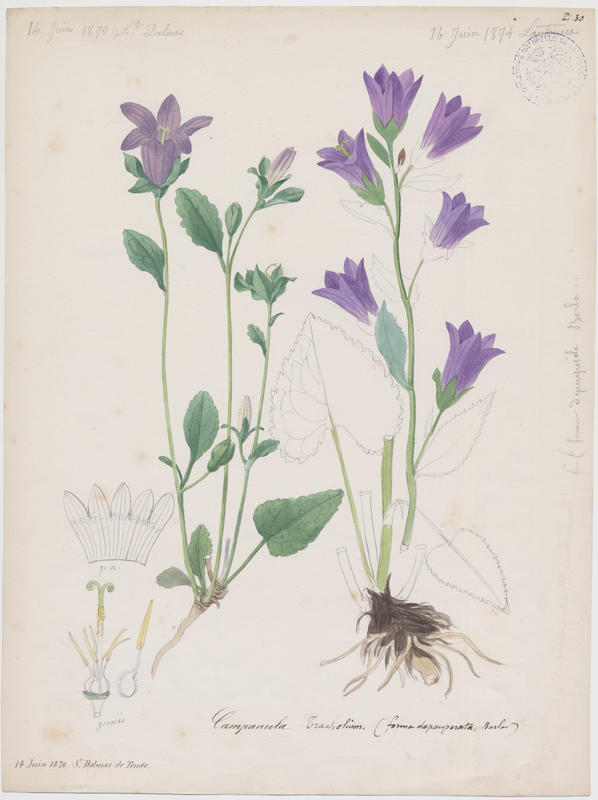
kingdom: Plantae
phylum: Tracheophyta
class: Magnoliopsida
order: Asterales
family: Campanulaceae
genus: Campanula
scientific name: Campanula trachelium
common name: Nettle-leaved bellflower
